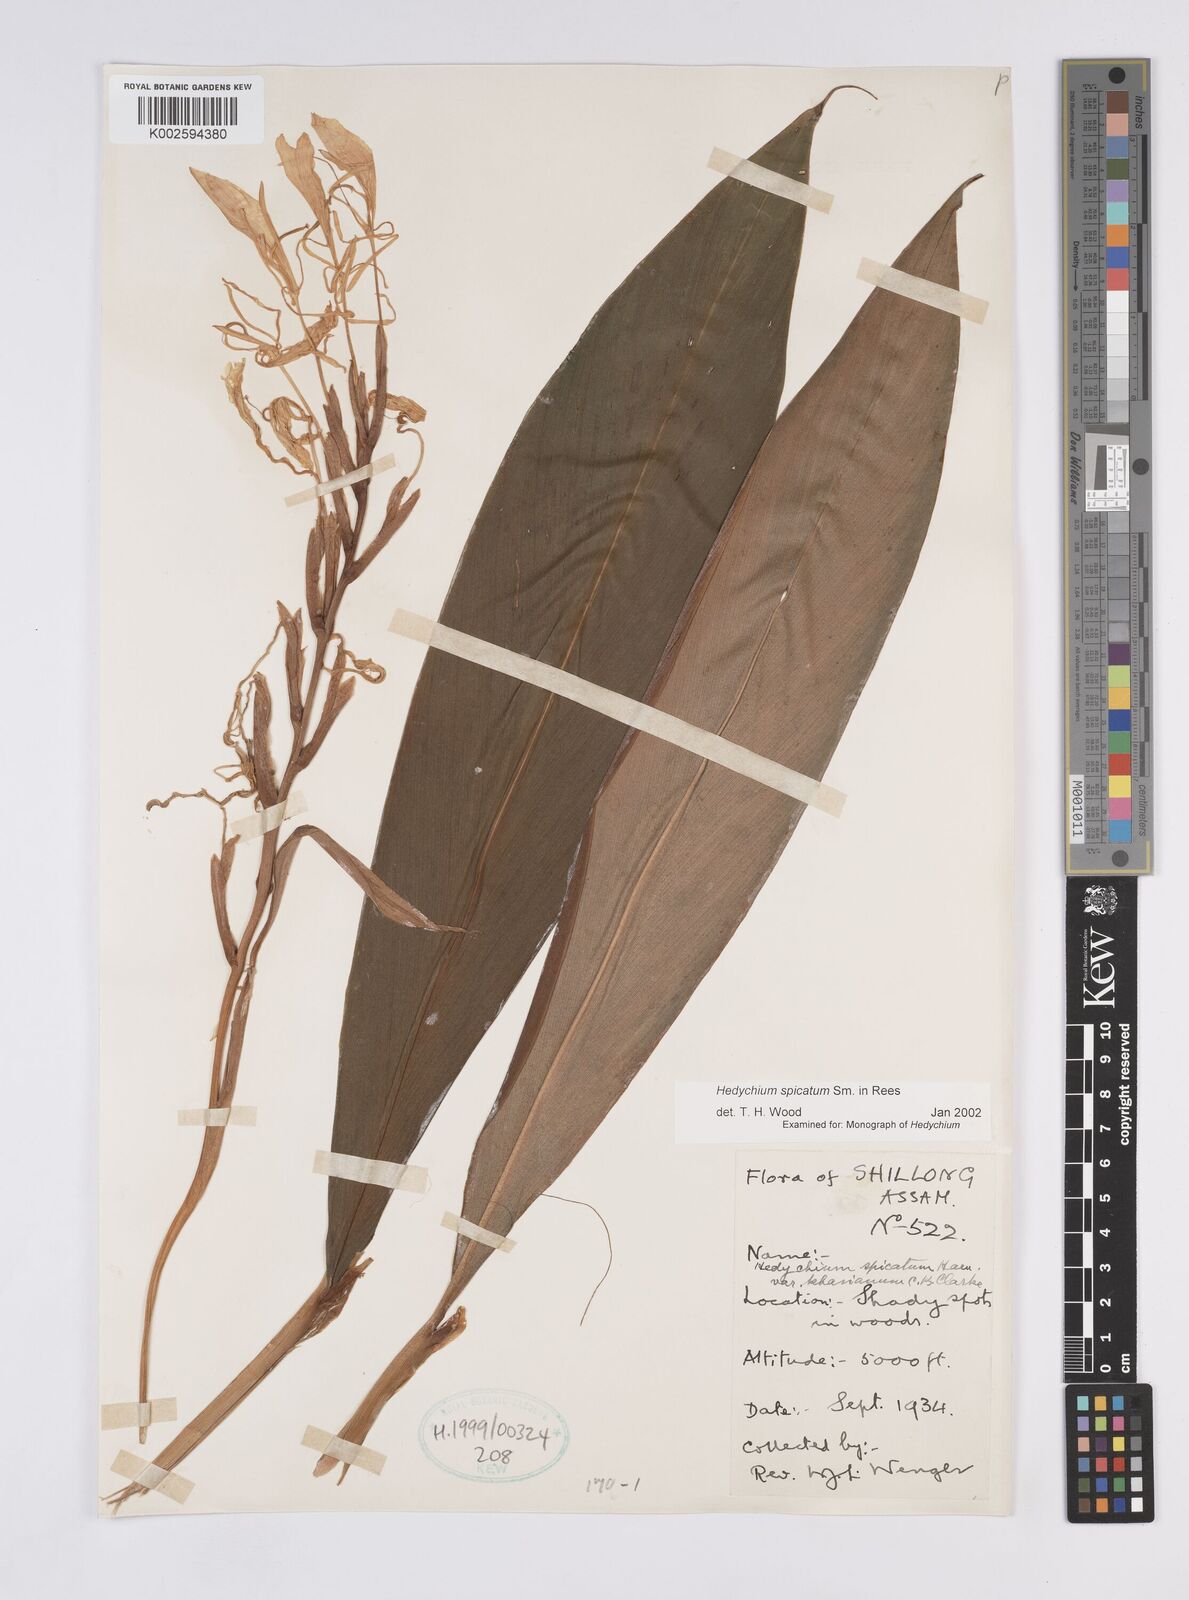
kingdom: Plantae
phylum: Tracheophyta
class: Liliopsida
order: Zingiberales
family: Zingiberaceae
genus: Hedychium
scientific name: Hedychium spicatum
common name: Spiked ginger-lily
